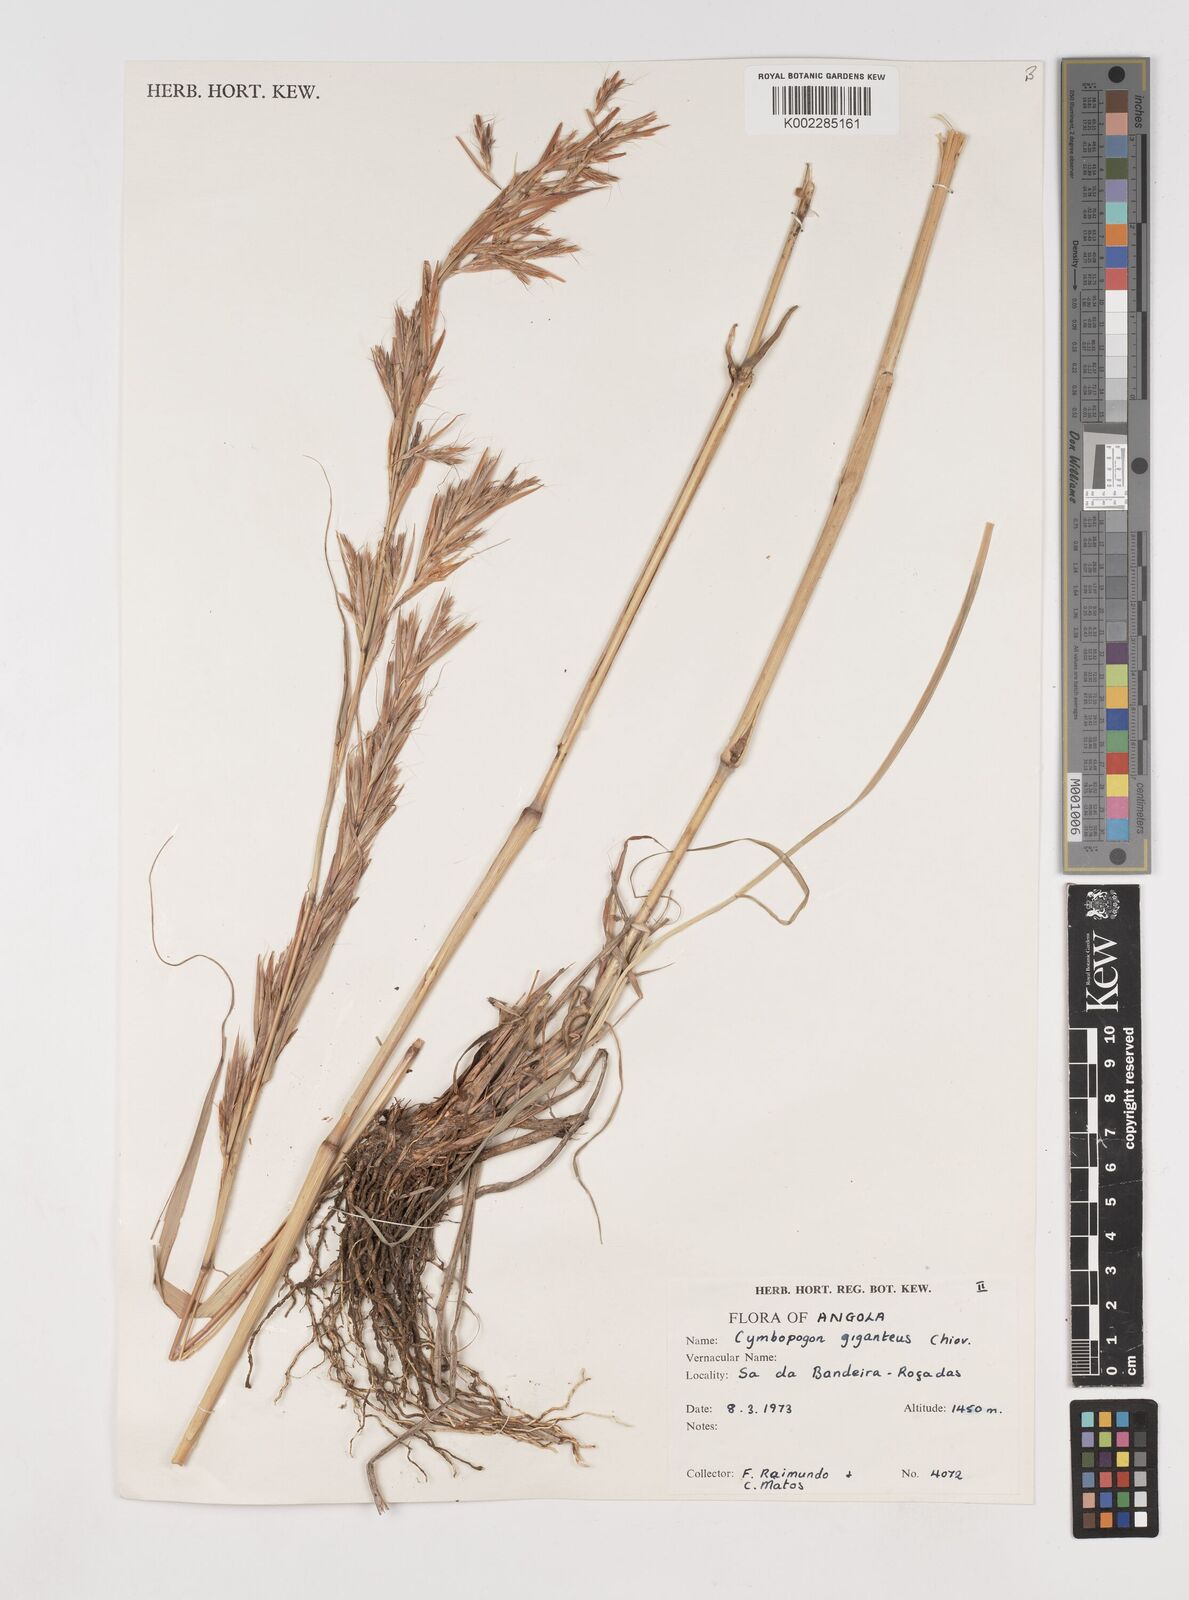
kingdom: Plantae
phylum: Tracheophyta
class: Liliopsida
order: Poales
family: Poaceae
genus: Cymbopogon
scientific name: Cymbopogon giganteus
